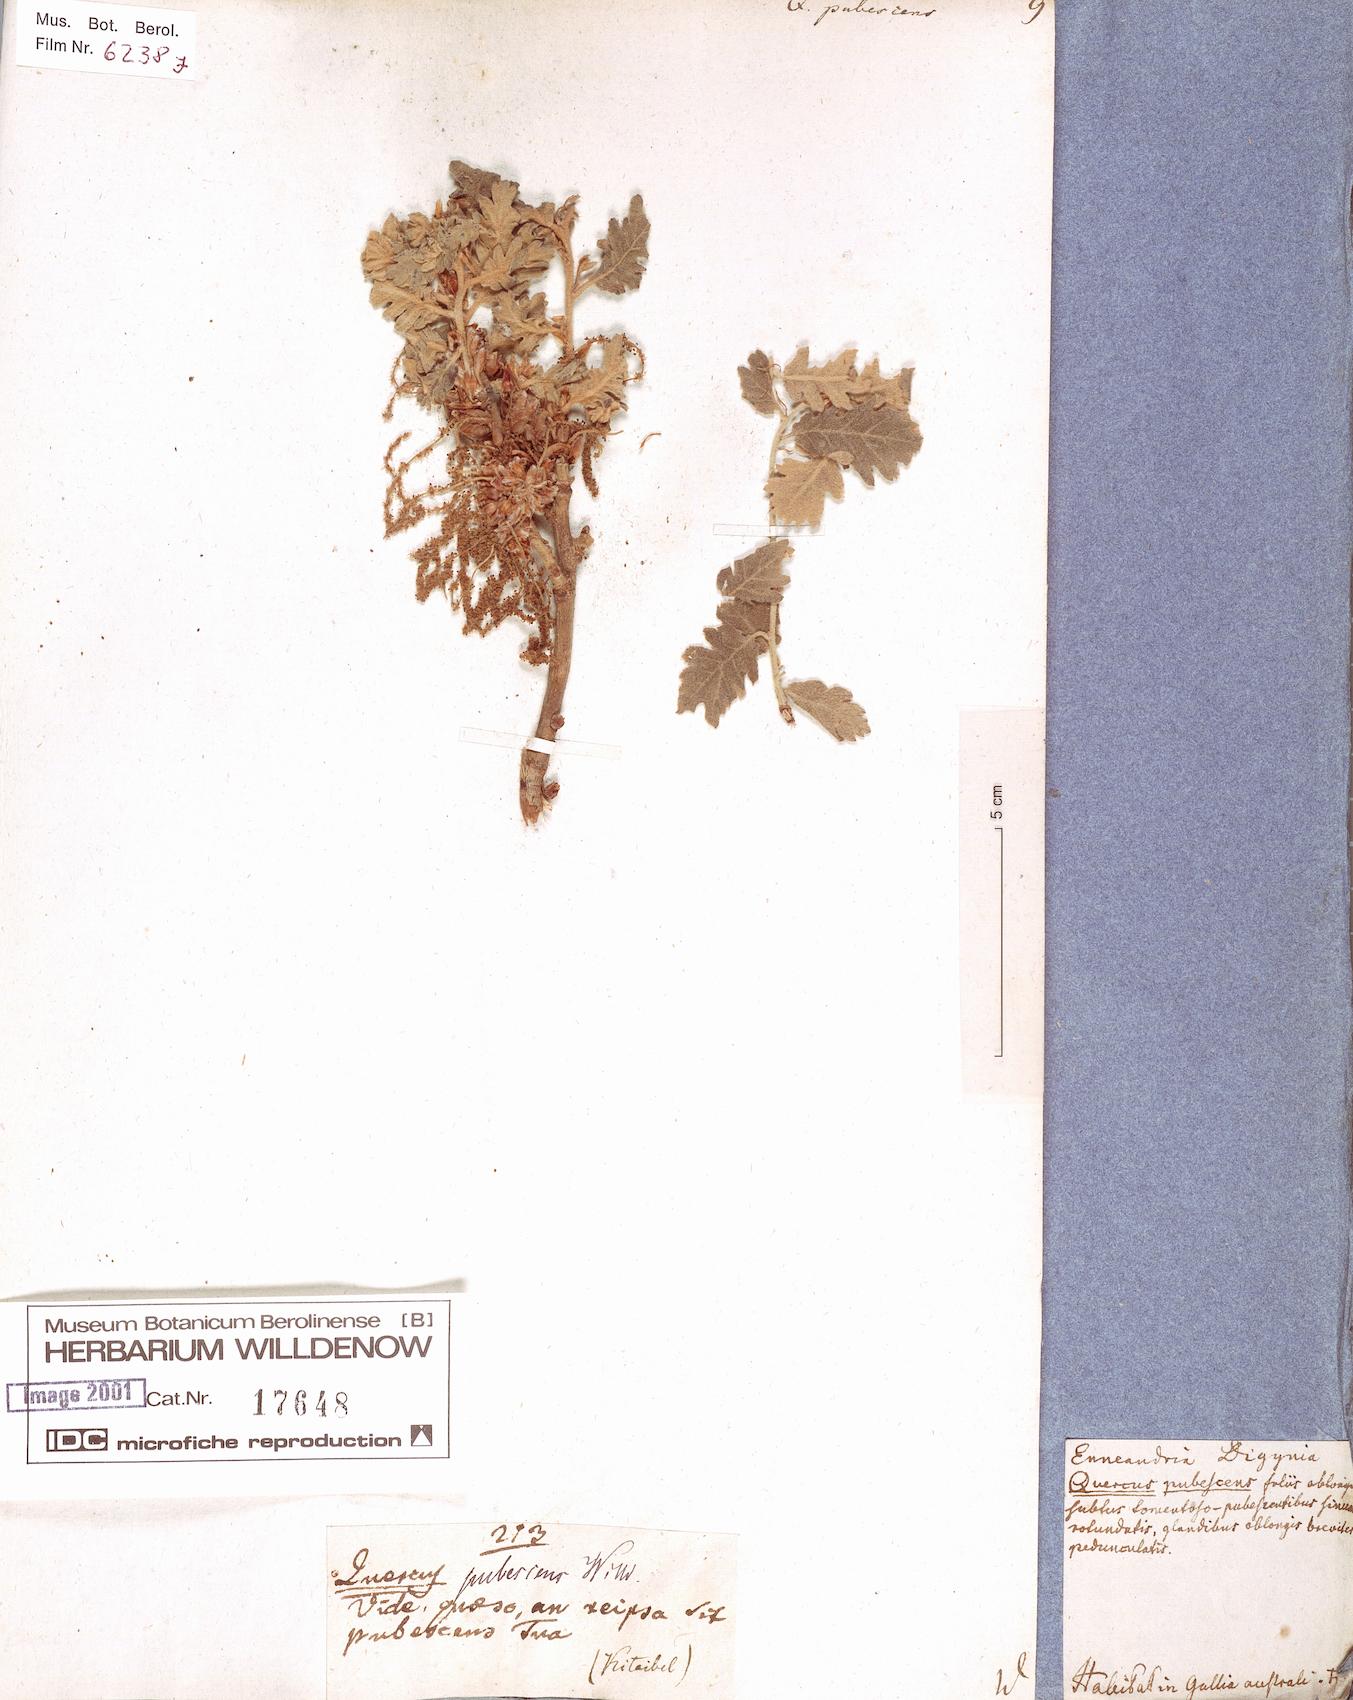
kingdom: Plantae
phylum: Tracheophyta
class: Magnoliopsida
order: Fagales
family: Fagaceae
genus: Quercus
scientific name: Quercus pubescens
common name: Downy oak
